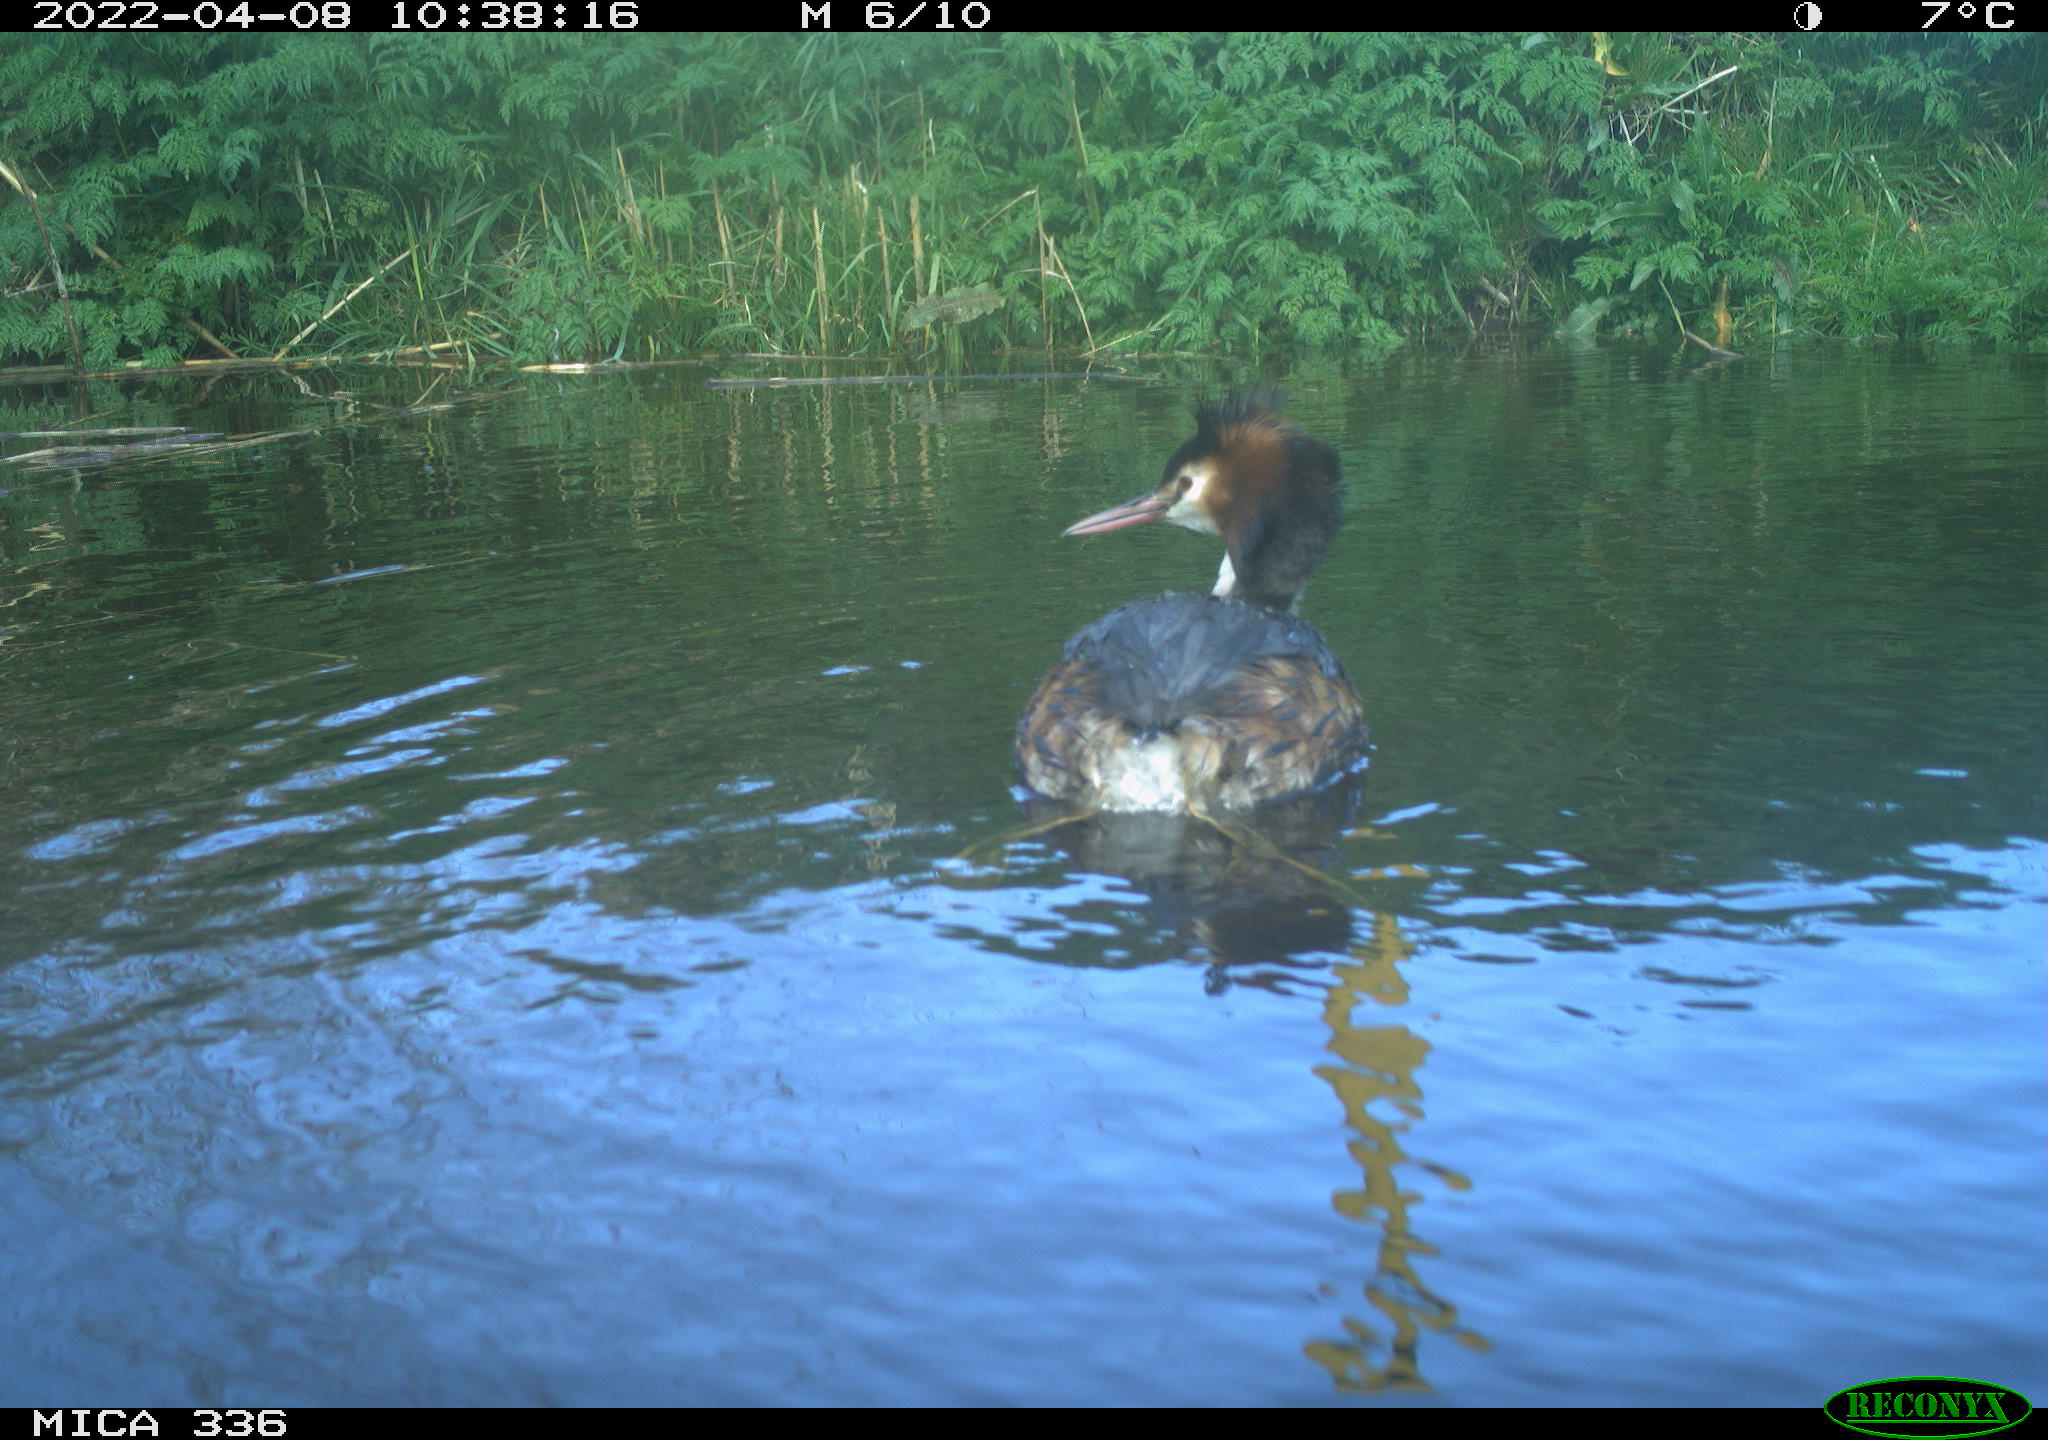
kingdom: Animalia
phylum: Chordata
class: Aves
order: Podicipediformes
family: Podicipedidae
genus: Podiceps
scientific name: Podiceps cristatus
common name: Great crested grebe
